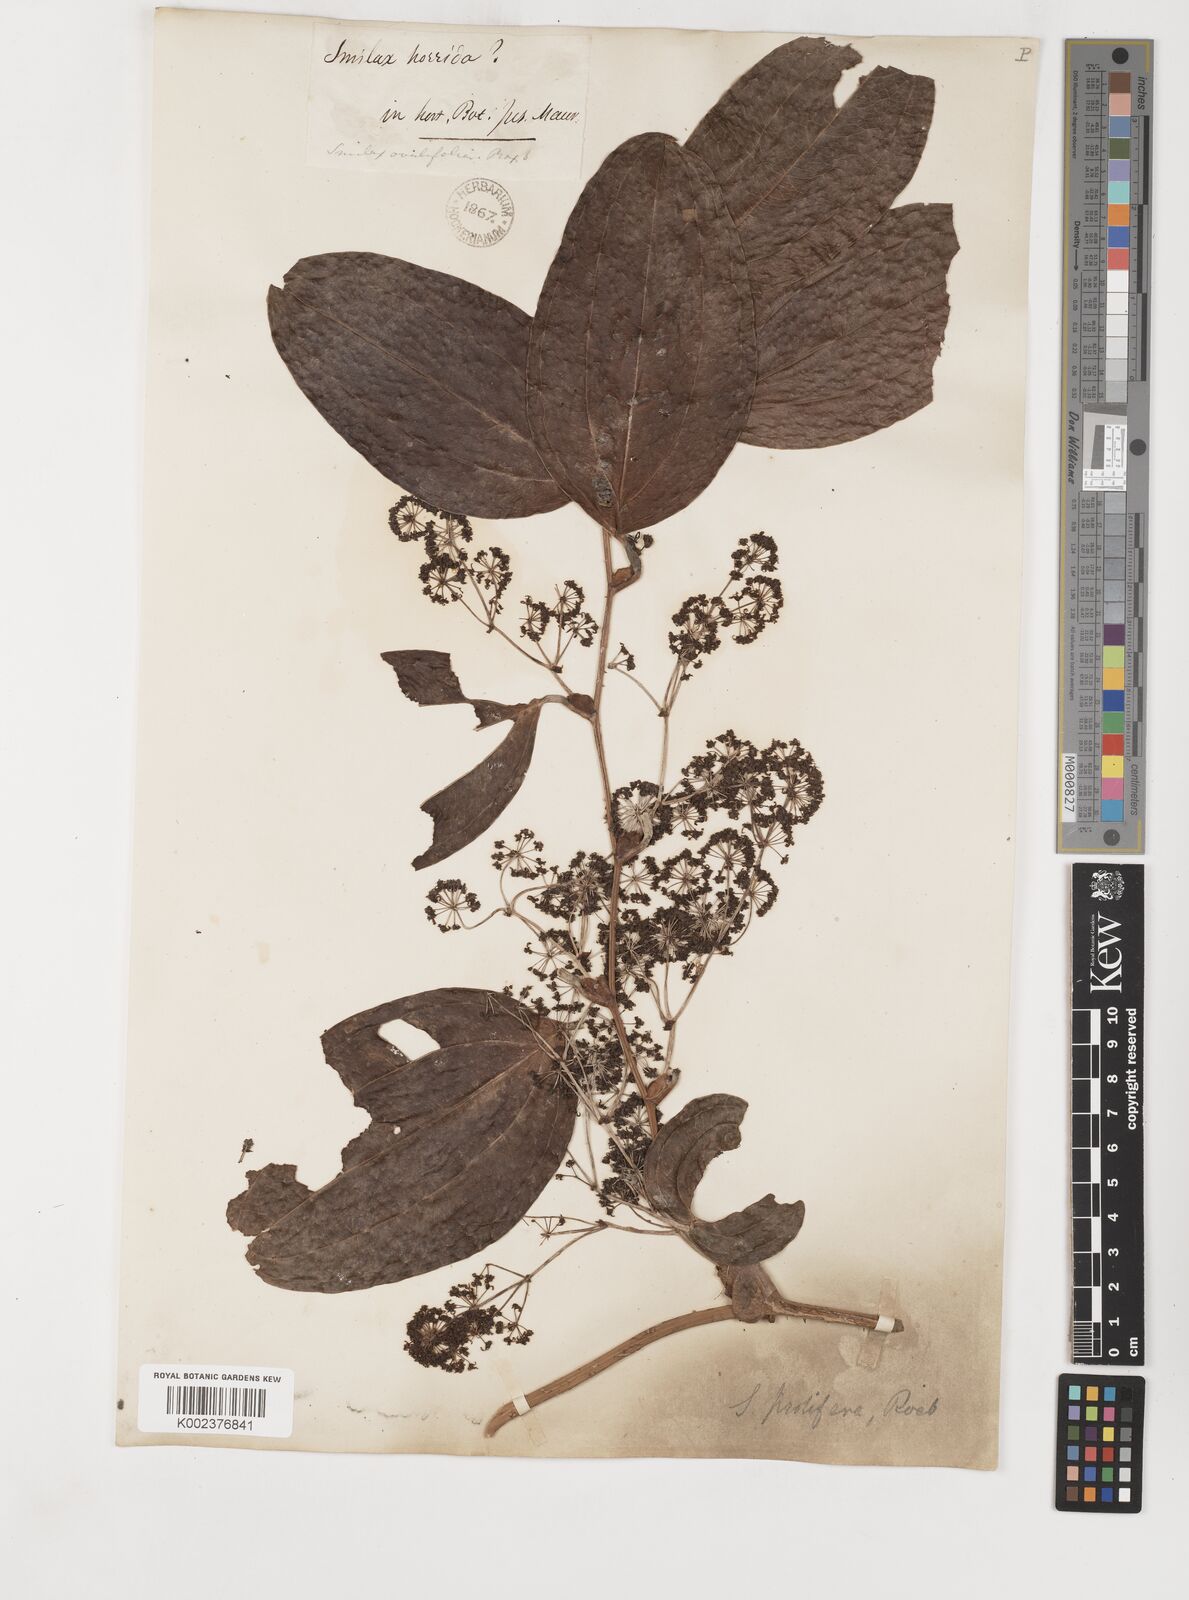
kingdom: Plantae
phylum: Tracheophyta
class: Liliopsida
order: Liliales
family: Smilacaceae
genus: Smilax
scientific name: Smilax prolifera
